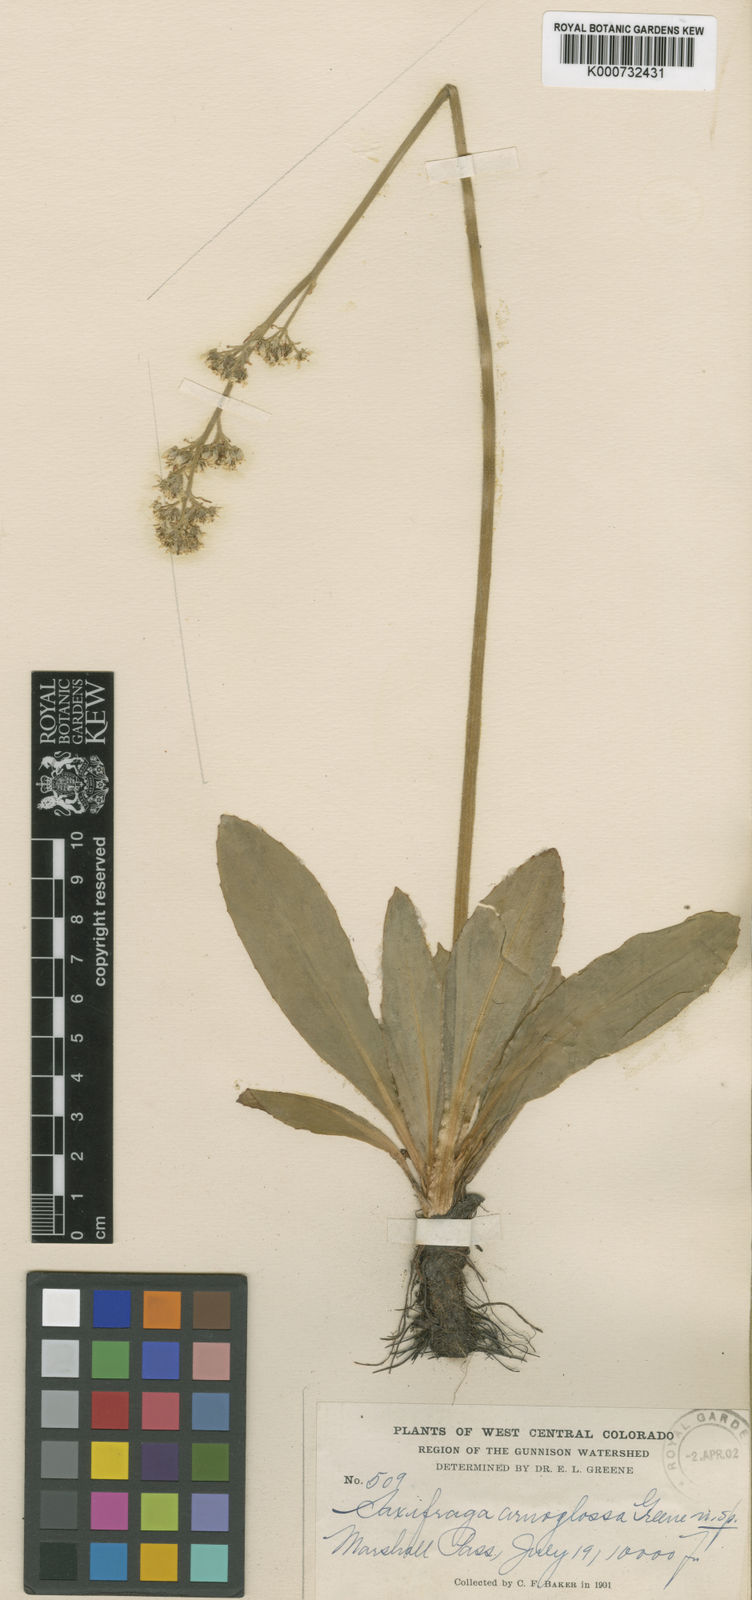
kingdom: Plantae
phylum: Tracheophyta
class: Magnoliopsida
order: Saxifragales
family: Saxifragaceae
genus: Micranthes
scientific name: Micranthes oregana
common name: Bog saxifrage
